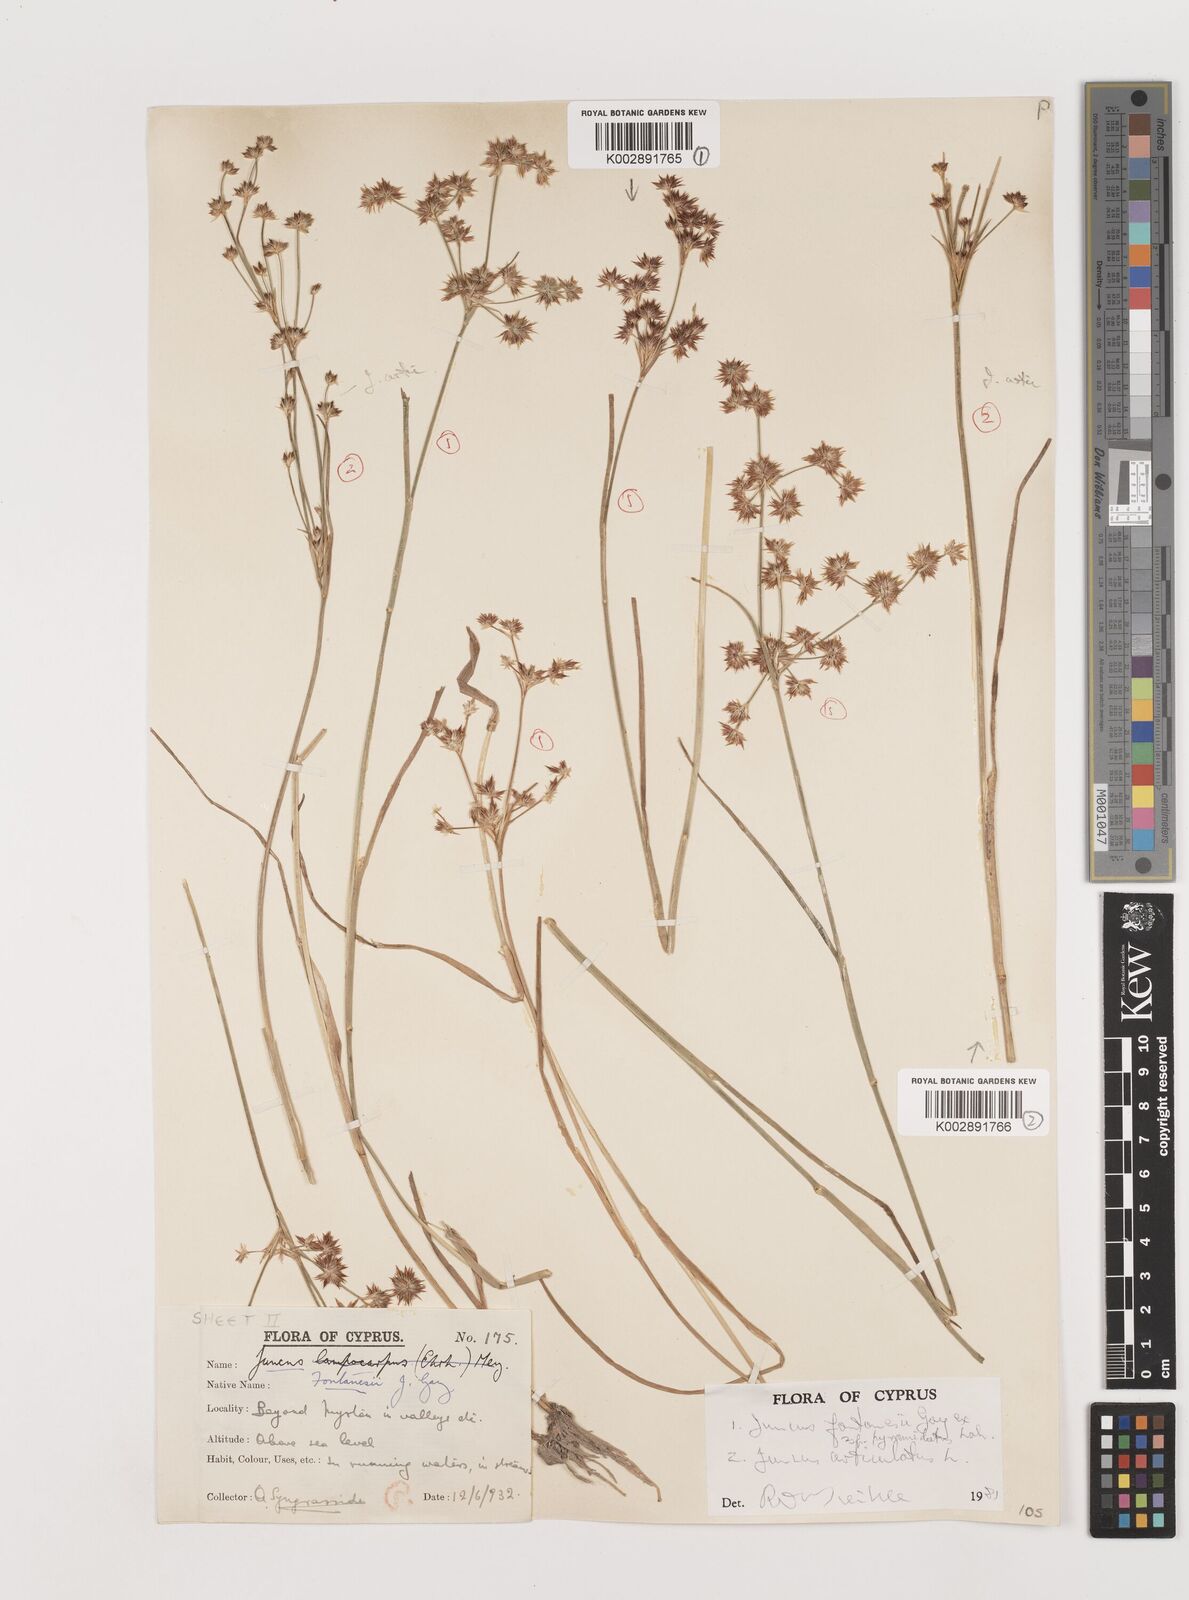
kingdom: Plantae
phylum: Tracheophyta
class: Liliopsida
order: Poales
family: Juncaceae
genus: Juncus
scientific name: Juncus articulatus
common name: Jointed rush
